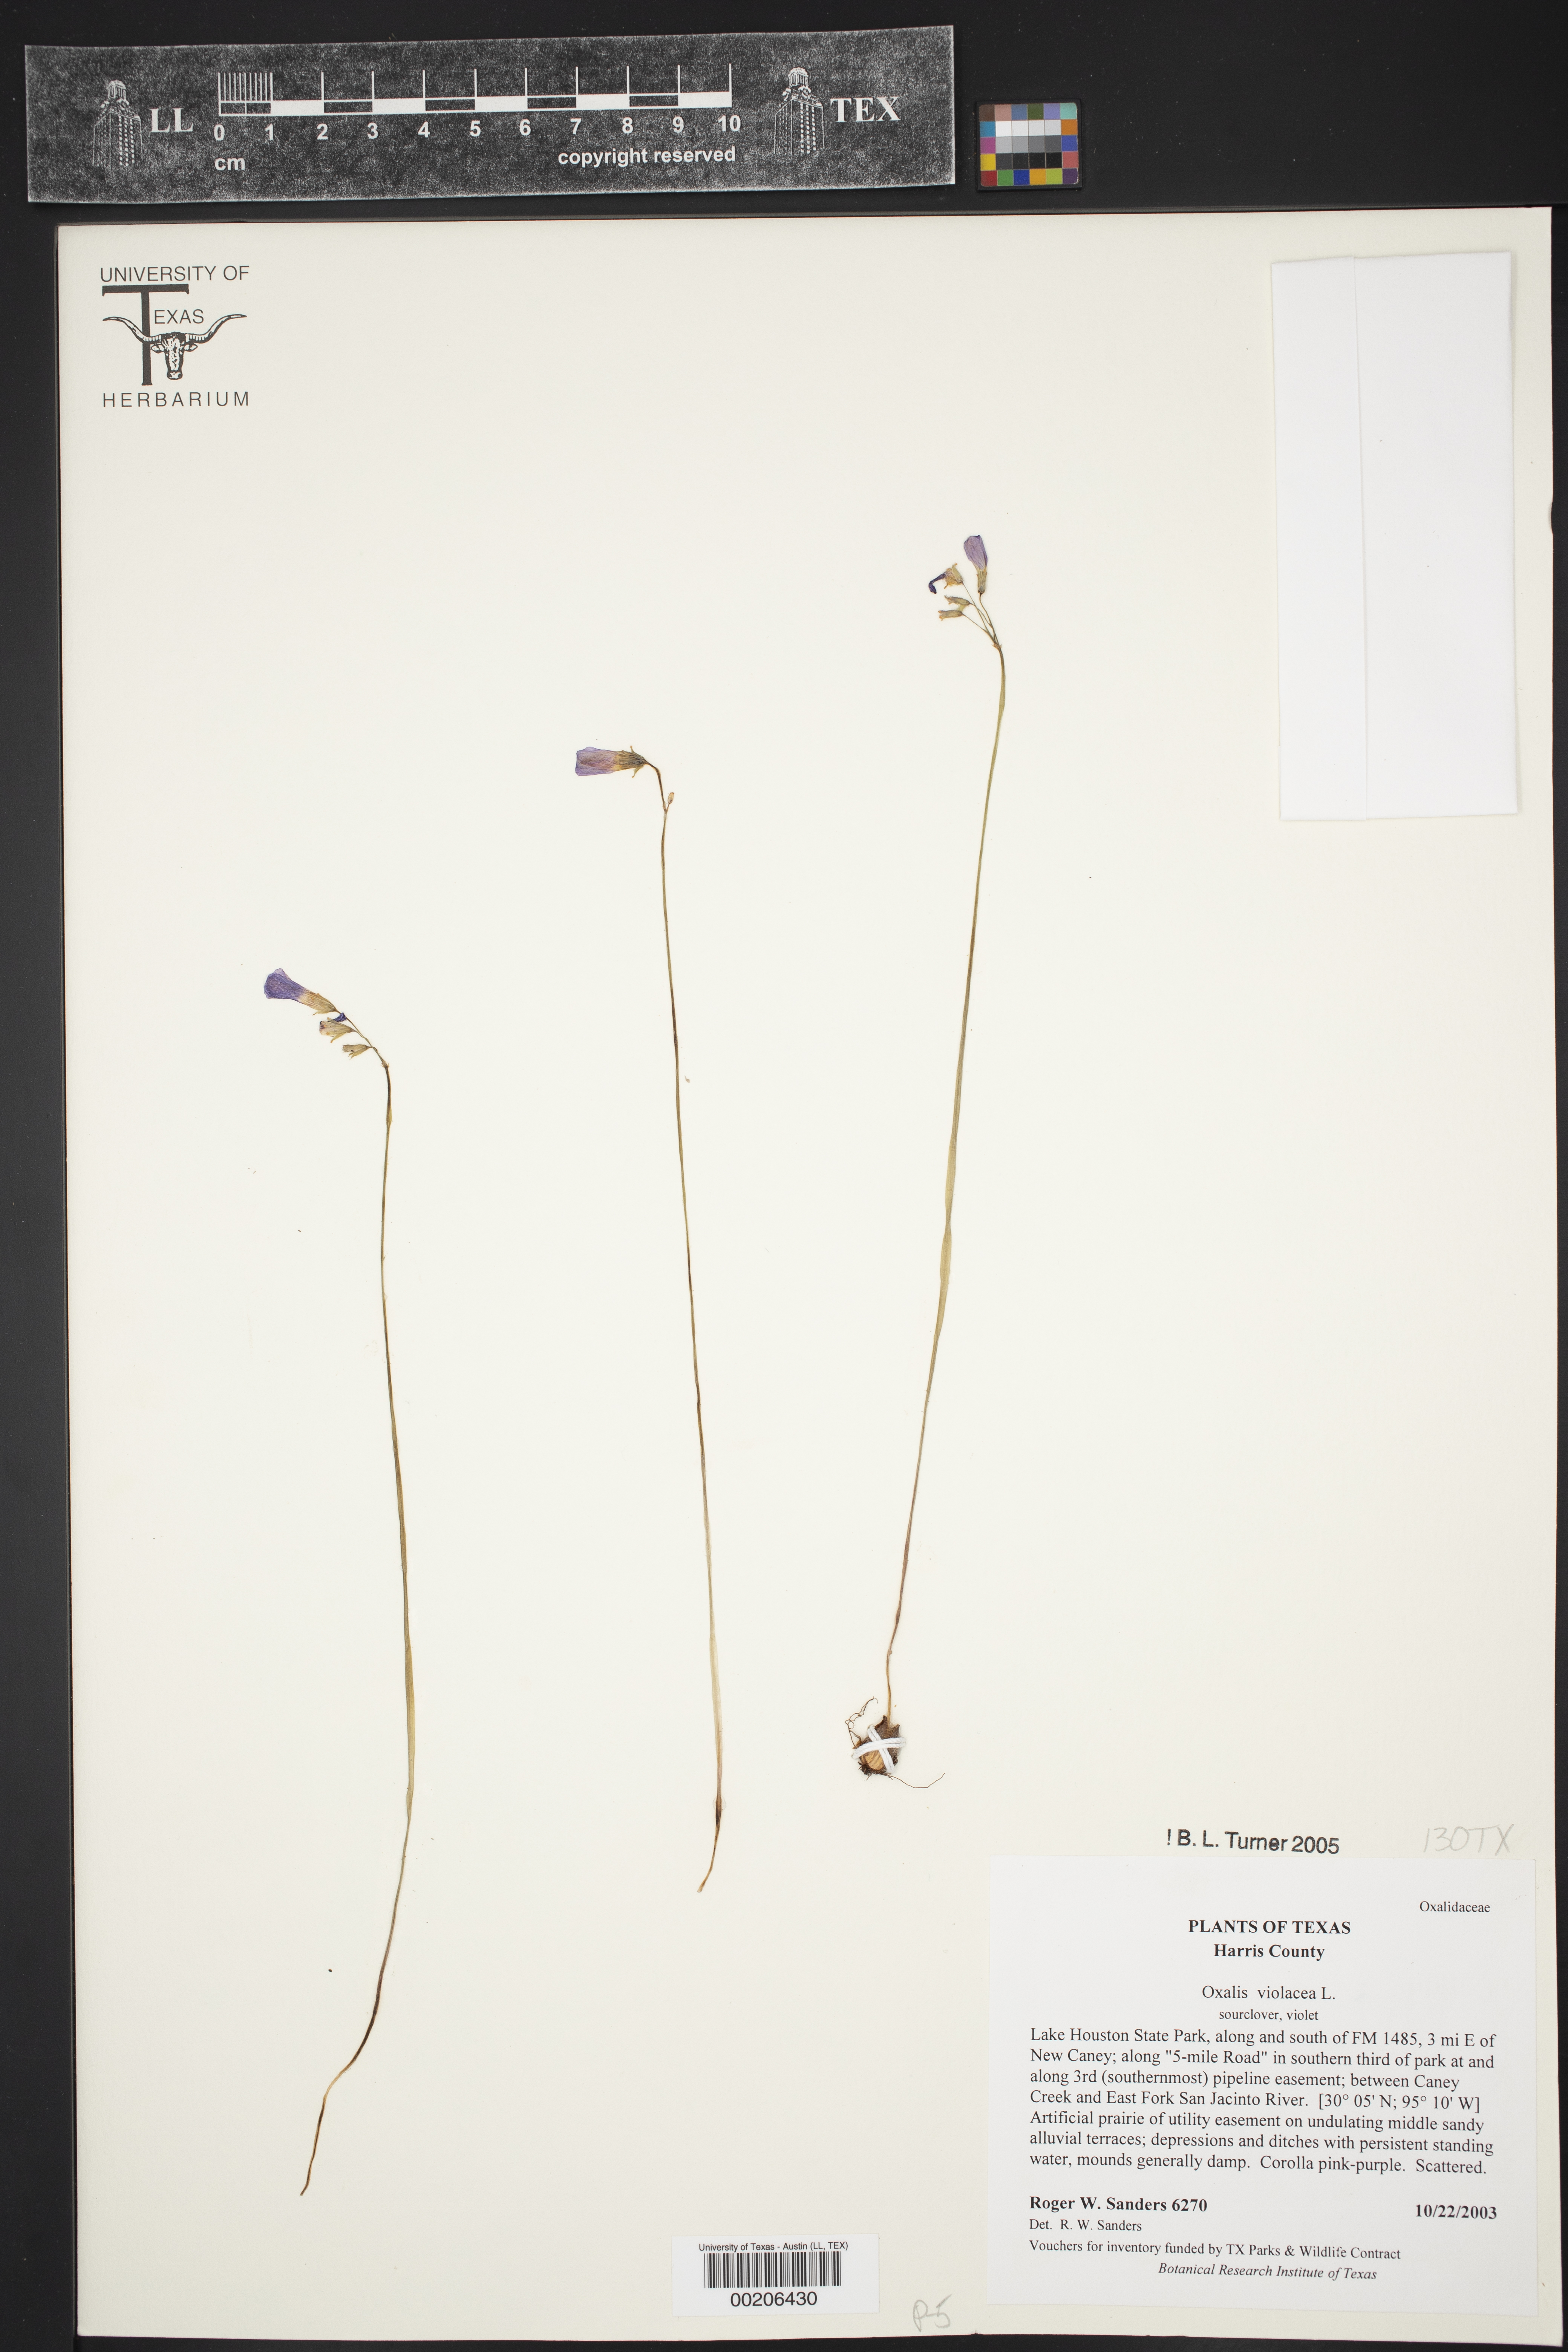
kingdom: Plantae
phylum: Tracheophyta
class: Magnoliopsida
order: Oxalidales
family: Oxalidaceae
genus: Oxalis
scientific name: Oxalis violacea
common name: Violet wood-sorrel
